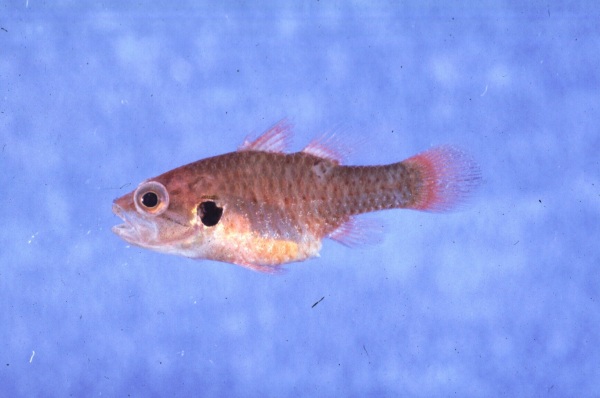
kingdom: Animalia
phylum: Chordata
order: Perciformes
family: Apogonidae
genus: Fowleria
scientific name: Fowleria marmorata
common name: Eared cardinalfish
